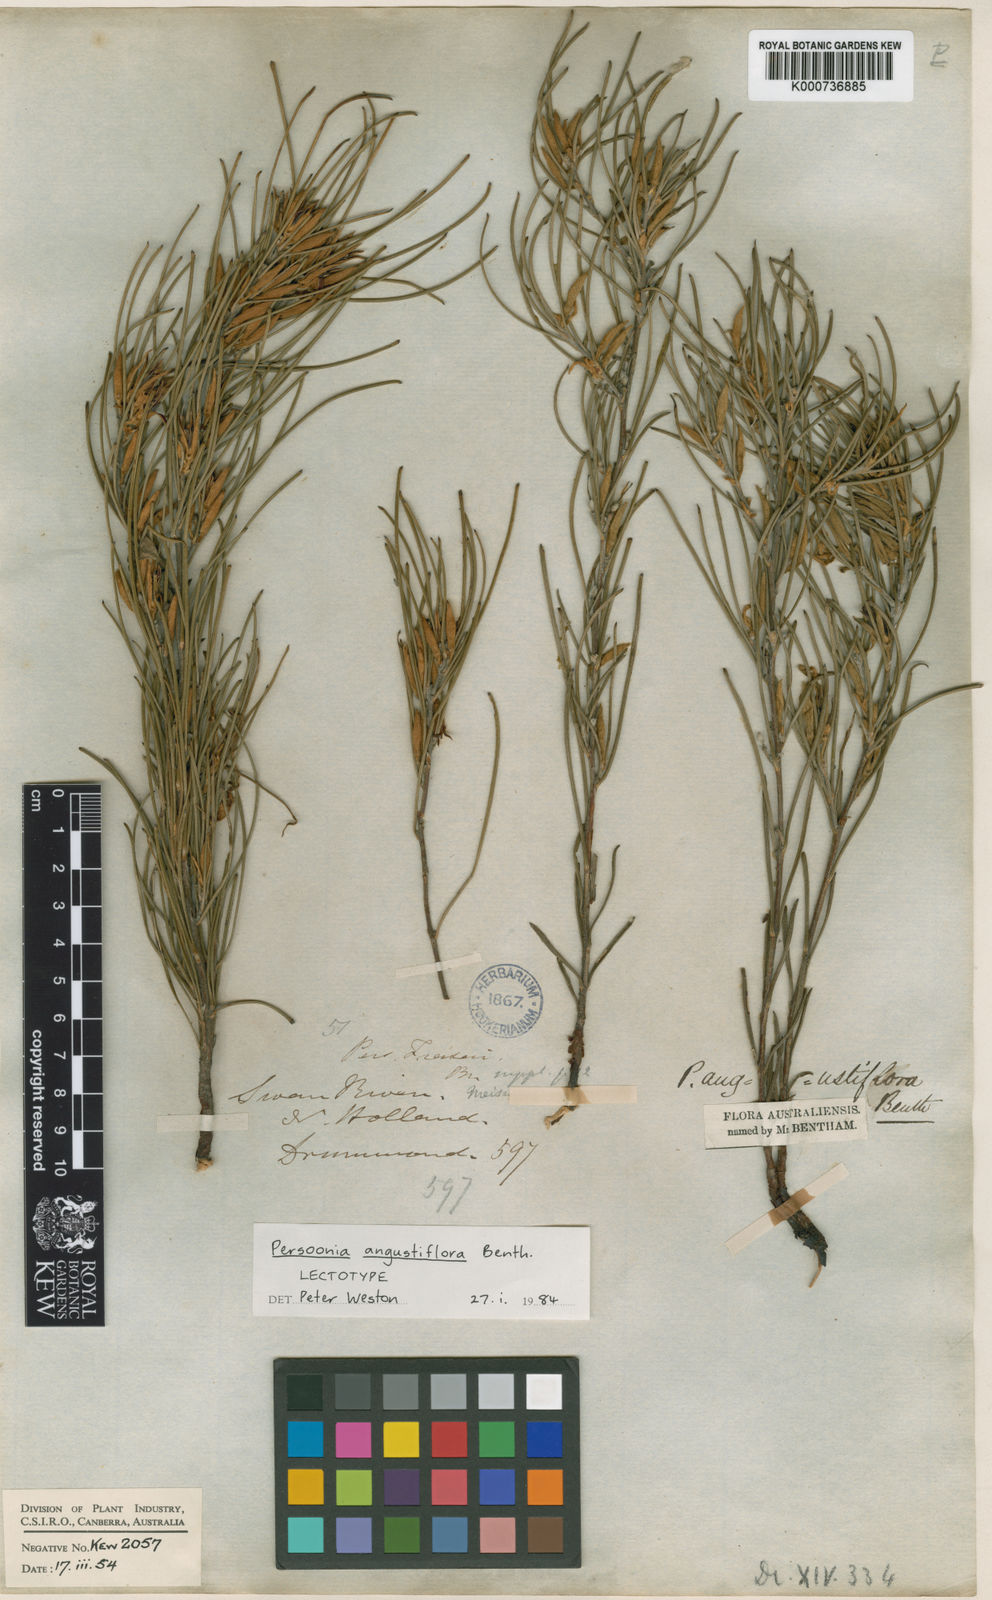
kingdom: Plantae
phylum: Tracheophyta
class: Magnoliopsida
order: Proteales
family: Proteaceae
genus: Persoonia
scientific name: Persoonia angustiflora
